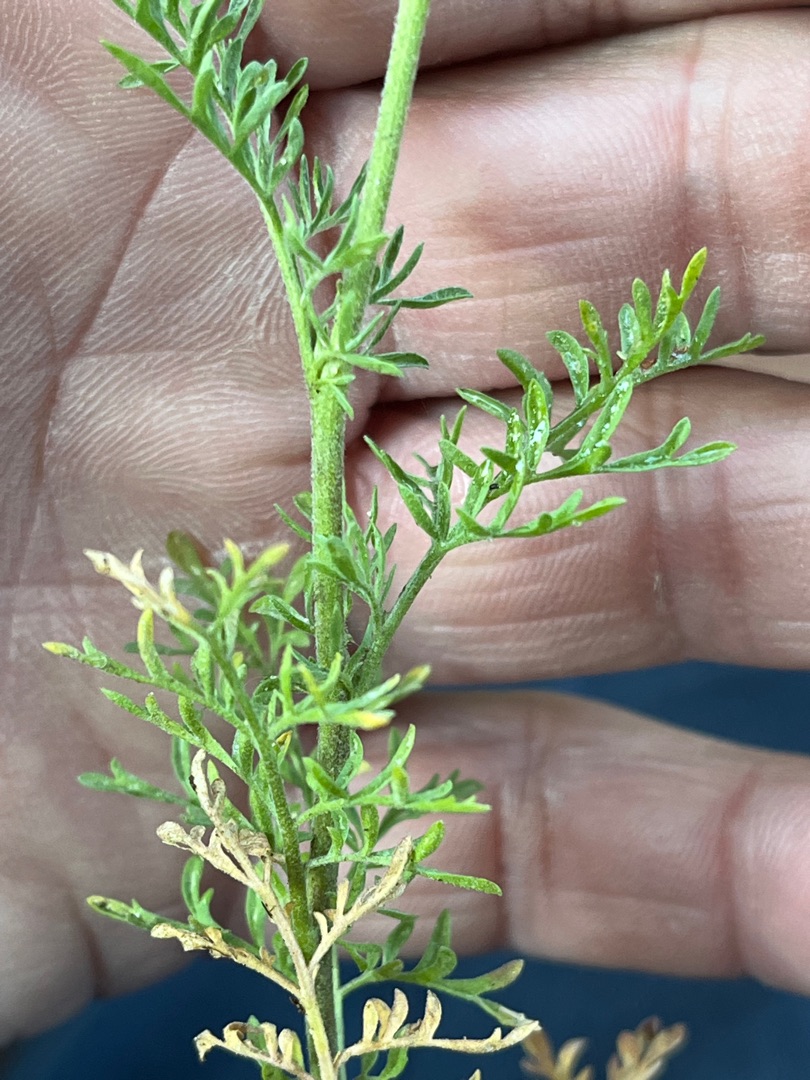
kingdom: Plantae
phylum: Tracheophyta
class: Magnoliopsida
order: Brassicales
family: Brassicaceae
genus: Descurainia
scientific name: Descurainia sophia
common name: Finbladet vejsennep
